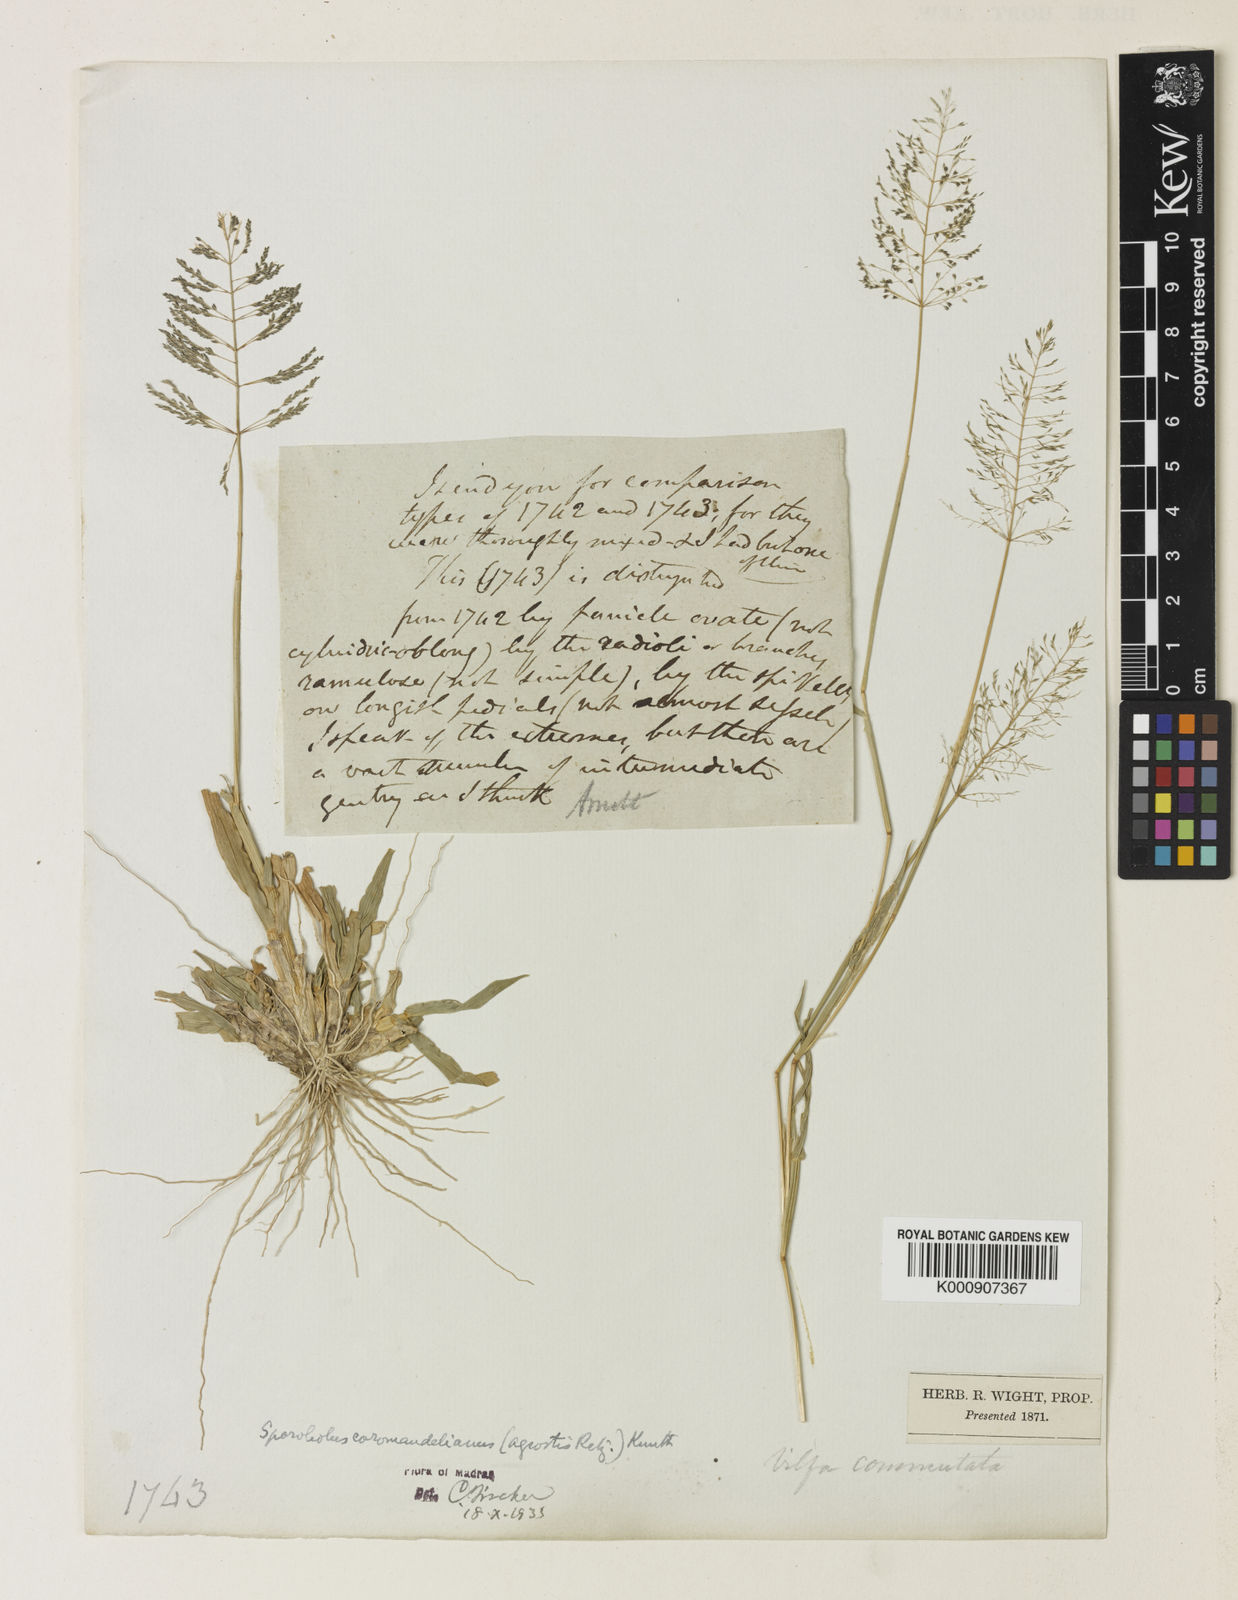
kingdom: Plantae
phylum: Tracheophyta
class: Liliopsida
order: Poales
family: Poaceae
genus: Sporobolus
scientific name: Sporobolus coromandelianus
